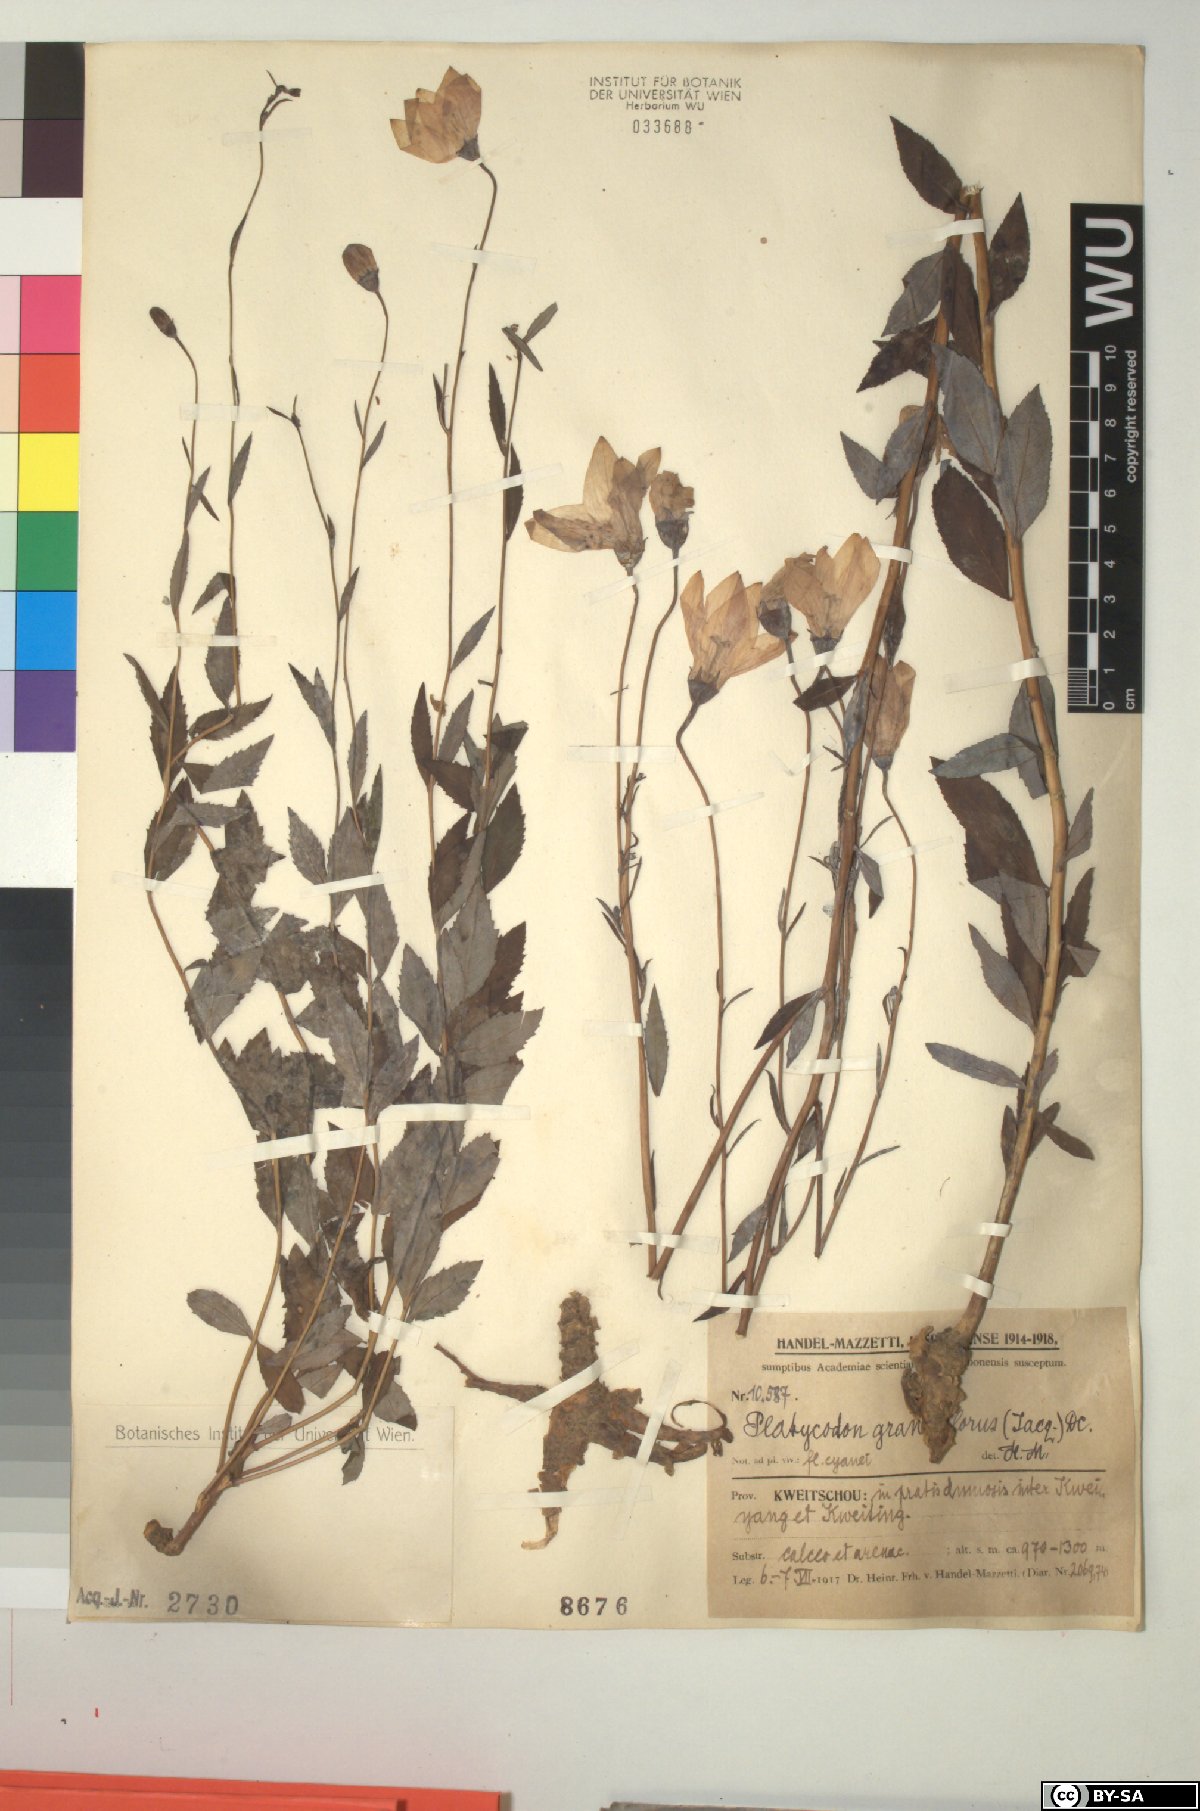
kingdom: Plantae
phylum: Tracheophyta
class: Magnoliopsida
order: Asterales
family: Campanulaceae
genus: Platycodon
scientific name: Platycodon grandiflorus
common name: Balloon-flower
